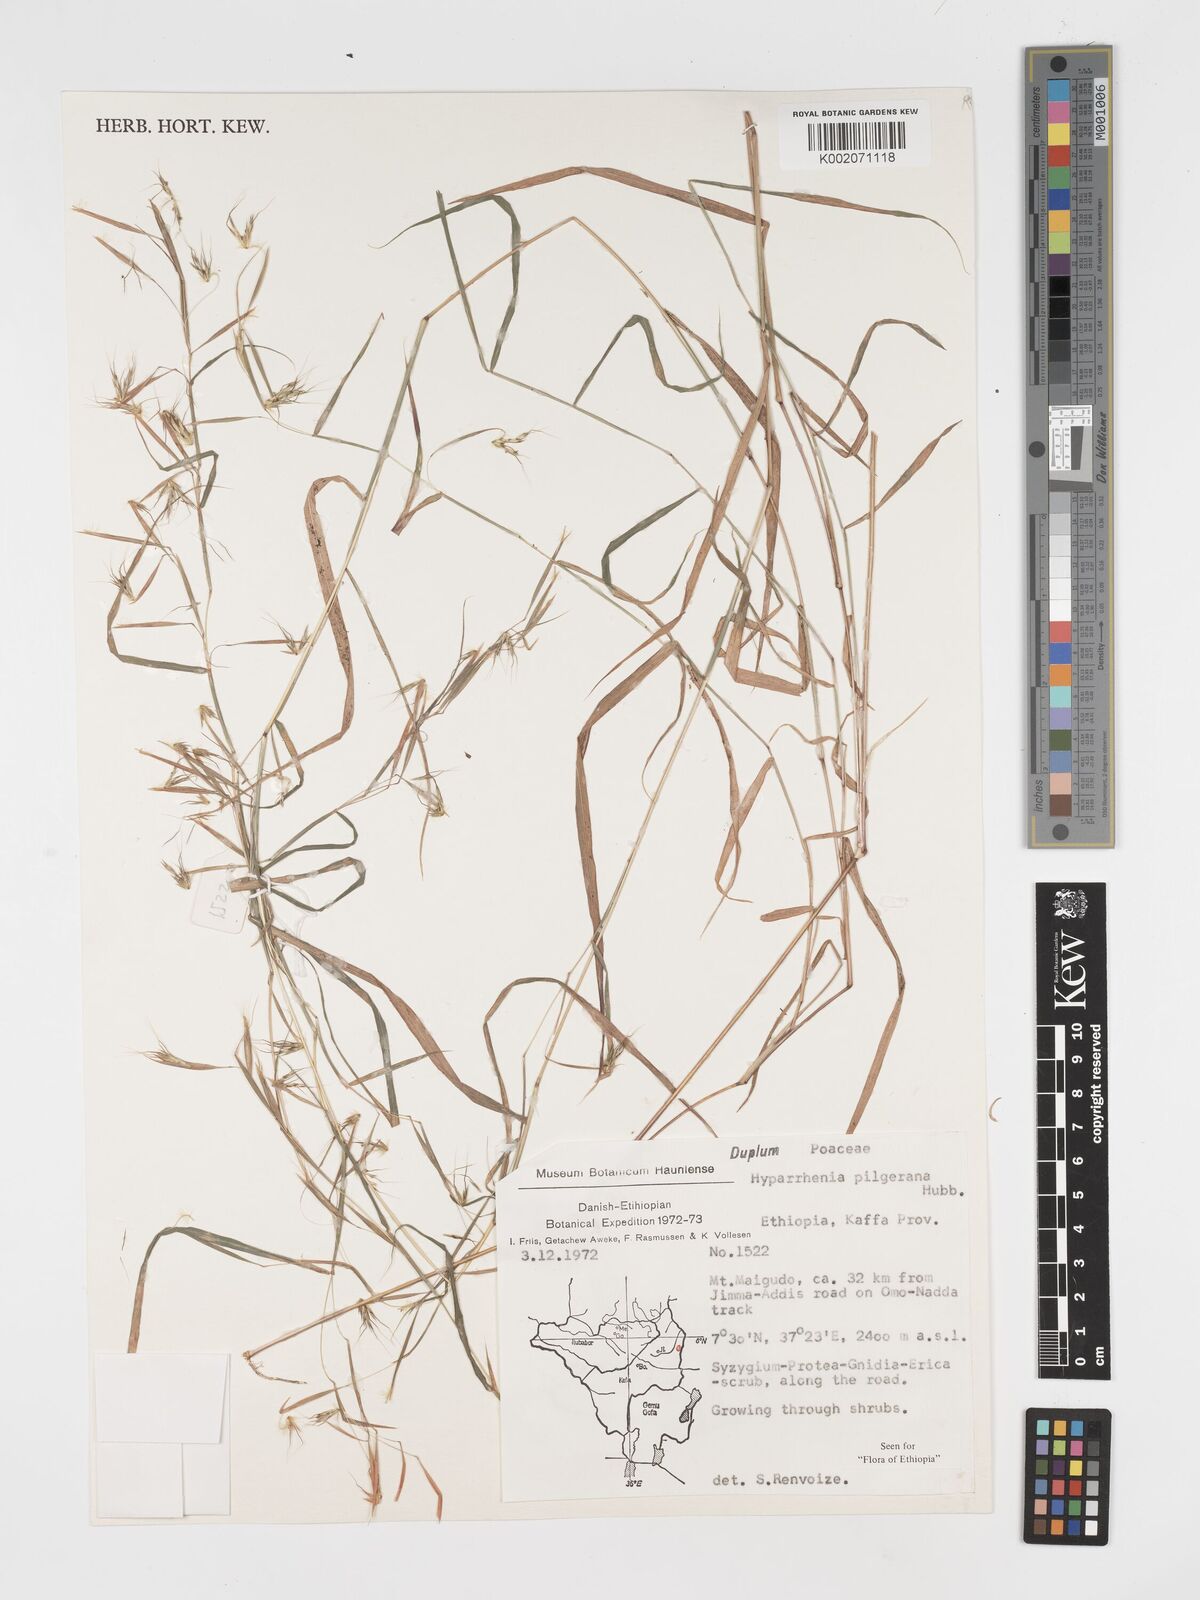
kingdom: Plantae
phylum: Tracheophyta
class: Liliopsida
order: Poales
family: Poaceae
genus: Hyparrhenia
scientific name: Hyparrhenia pilgeriana
